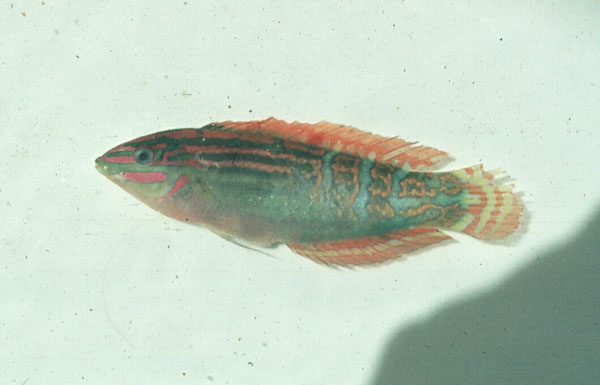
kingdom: Animalia
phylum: Chordata
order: Perciformes
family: Labridae
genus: Coris
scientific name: Coris caudimacula
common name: Spottail coris
